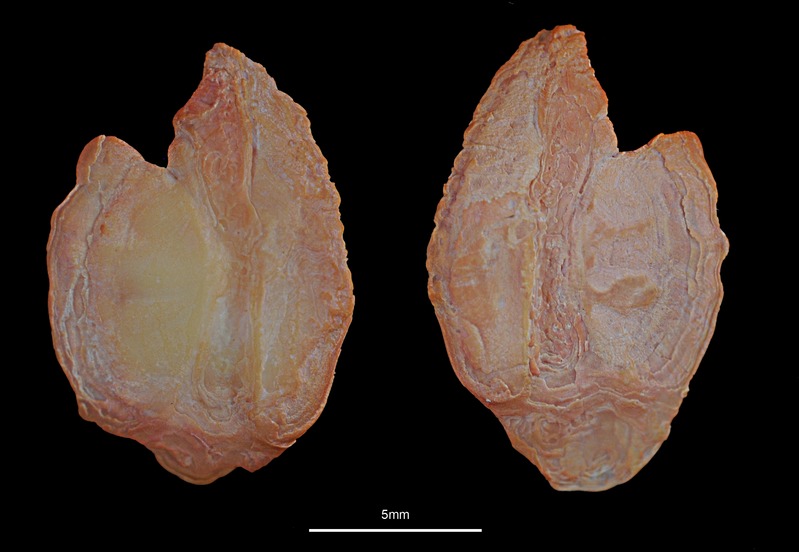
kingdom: Animalia
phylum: Chordata
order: Scorpaeniformes
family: Sebastidae
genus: Sebastes
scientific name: Sebastes mentella
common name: Deepwater redfish
